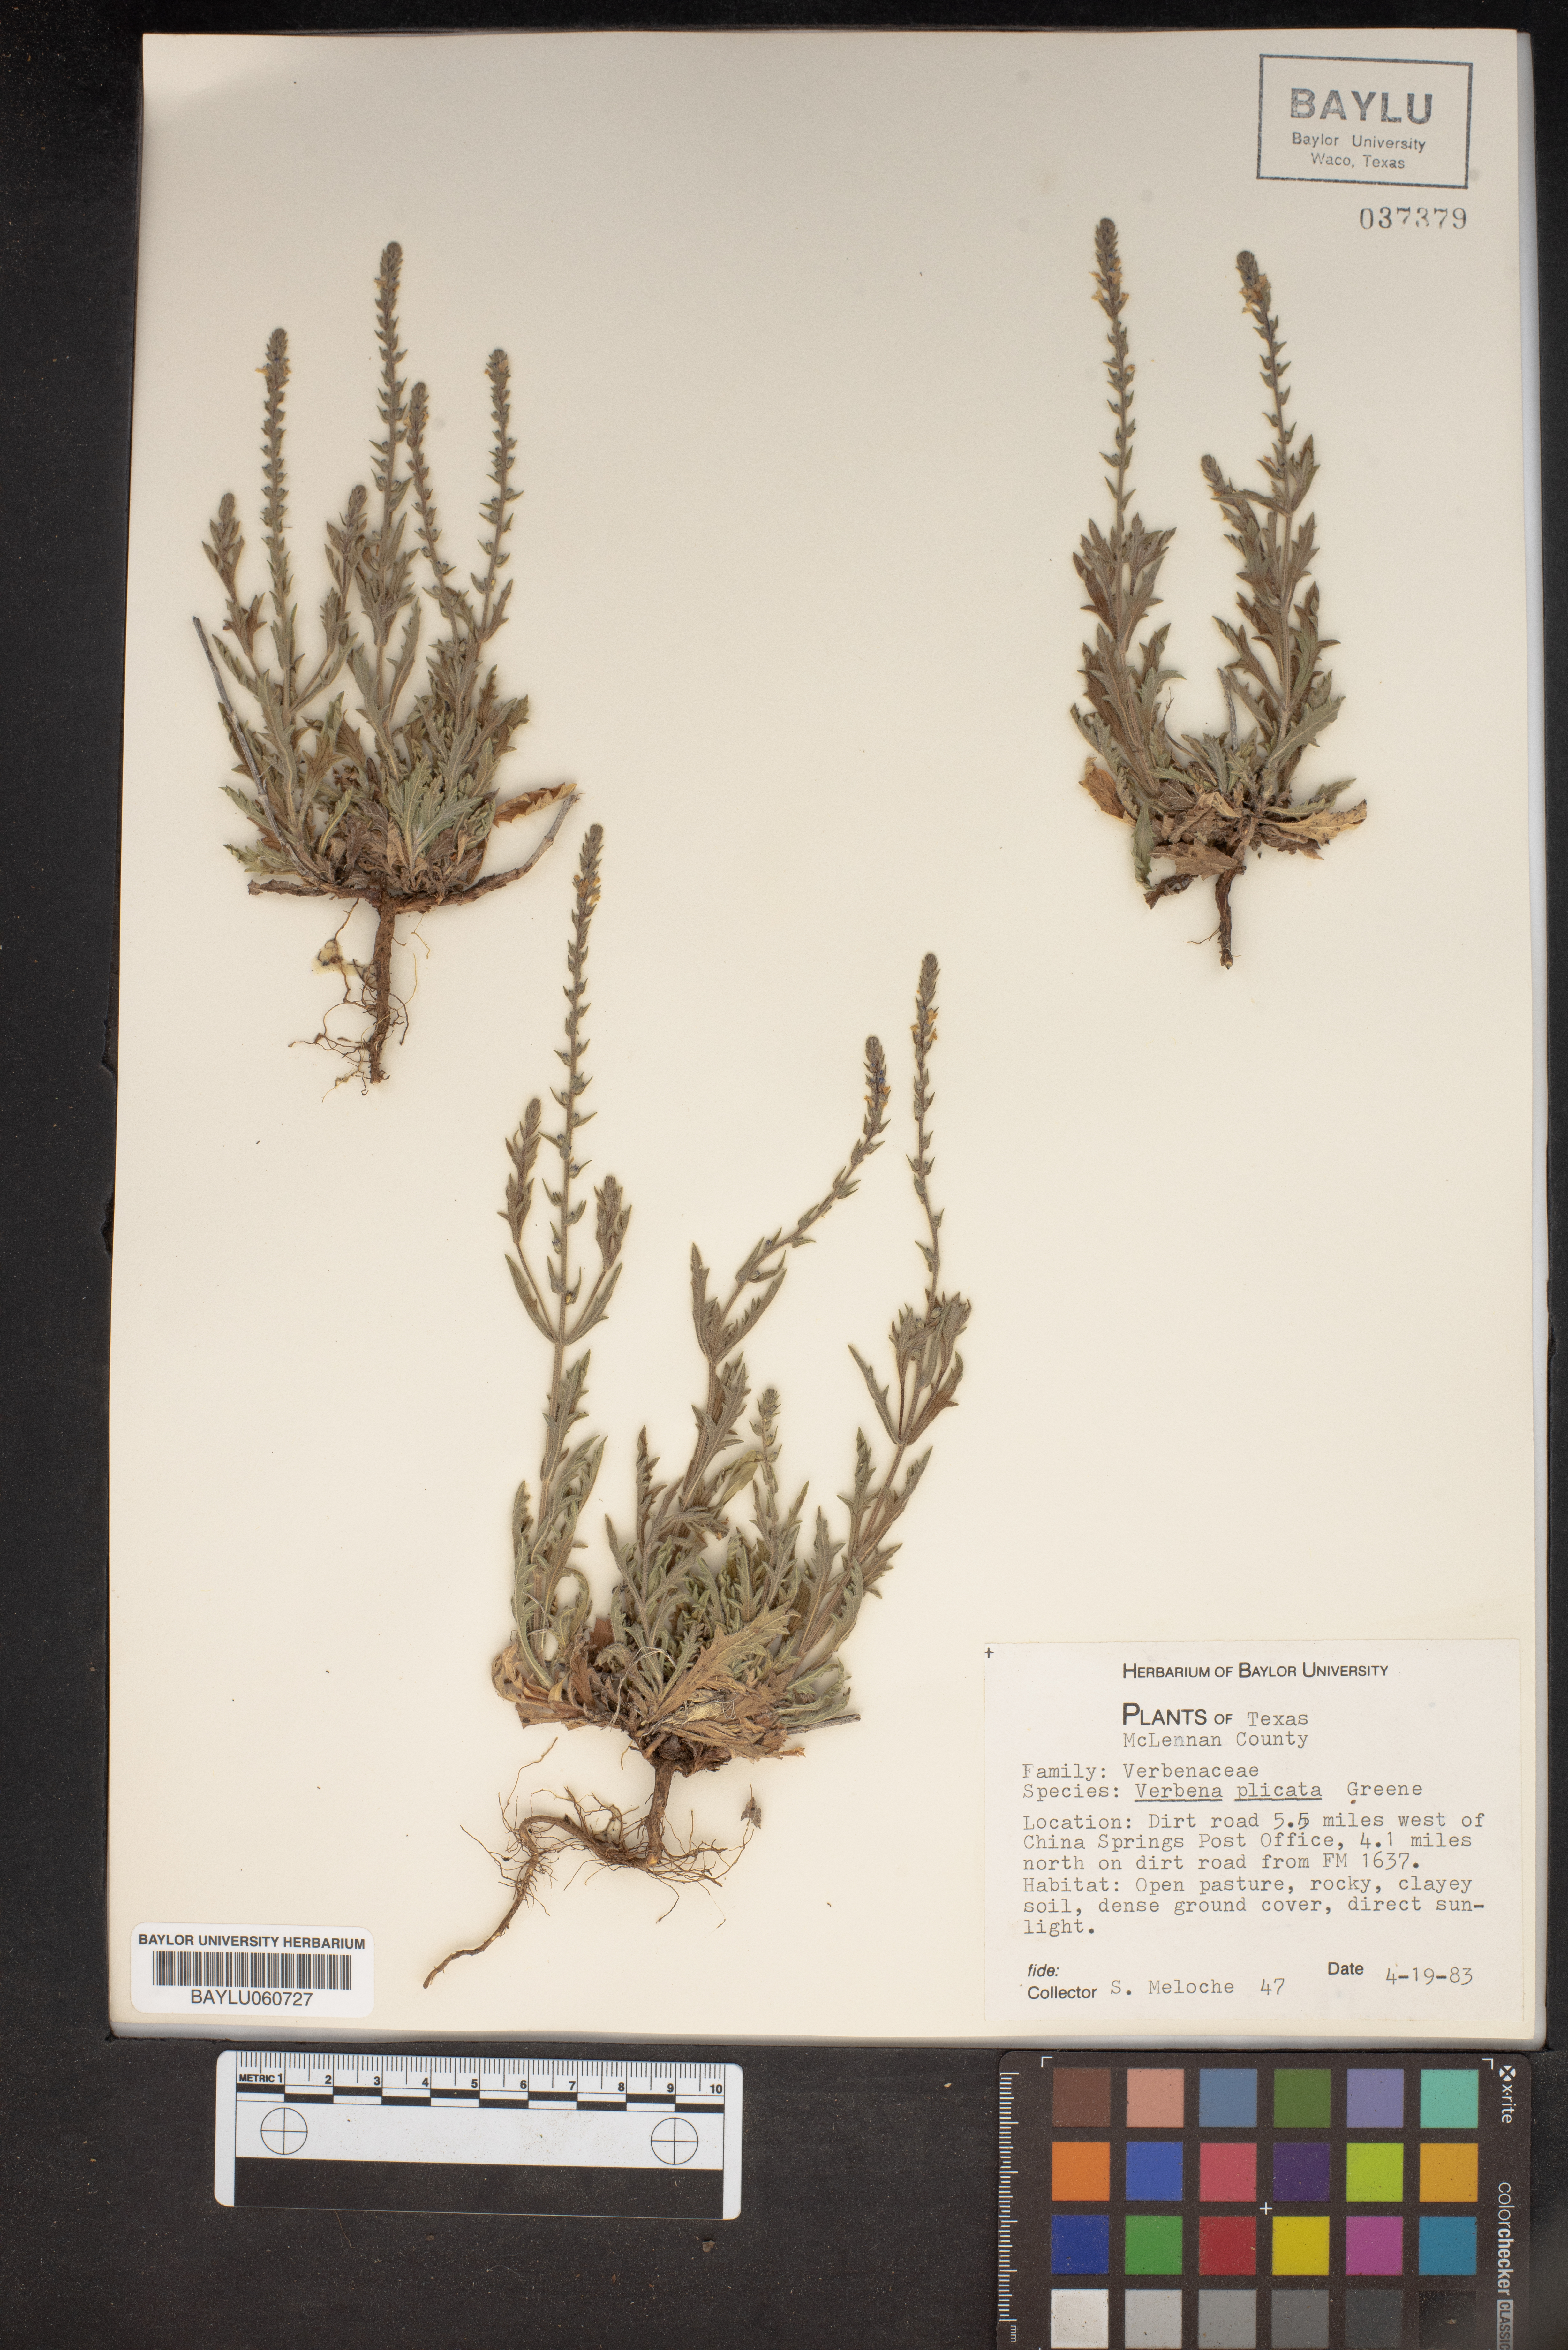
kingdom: Plantae
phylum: Tracheophyta
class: Magnoliopsida
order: Lamiales
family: Verbenaceae
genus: Verbena
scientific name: Verbena plicata
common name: Fan-leaf vervain
